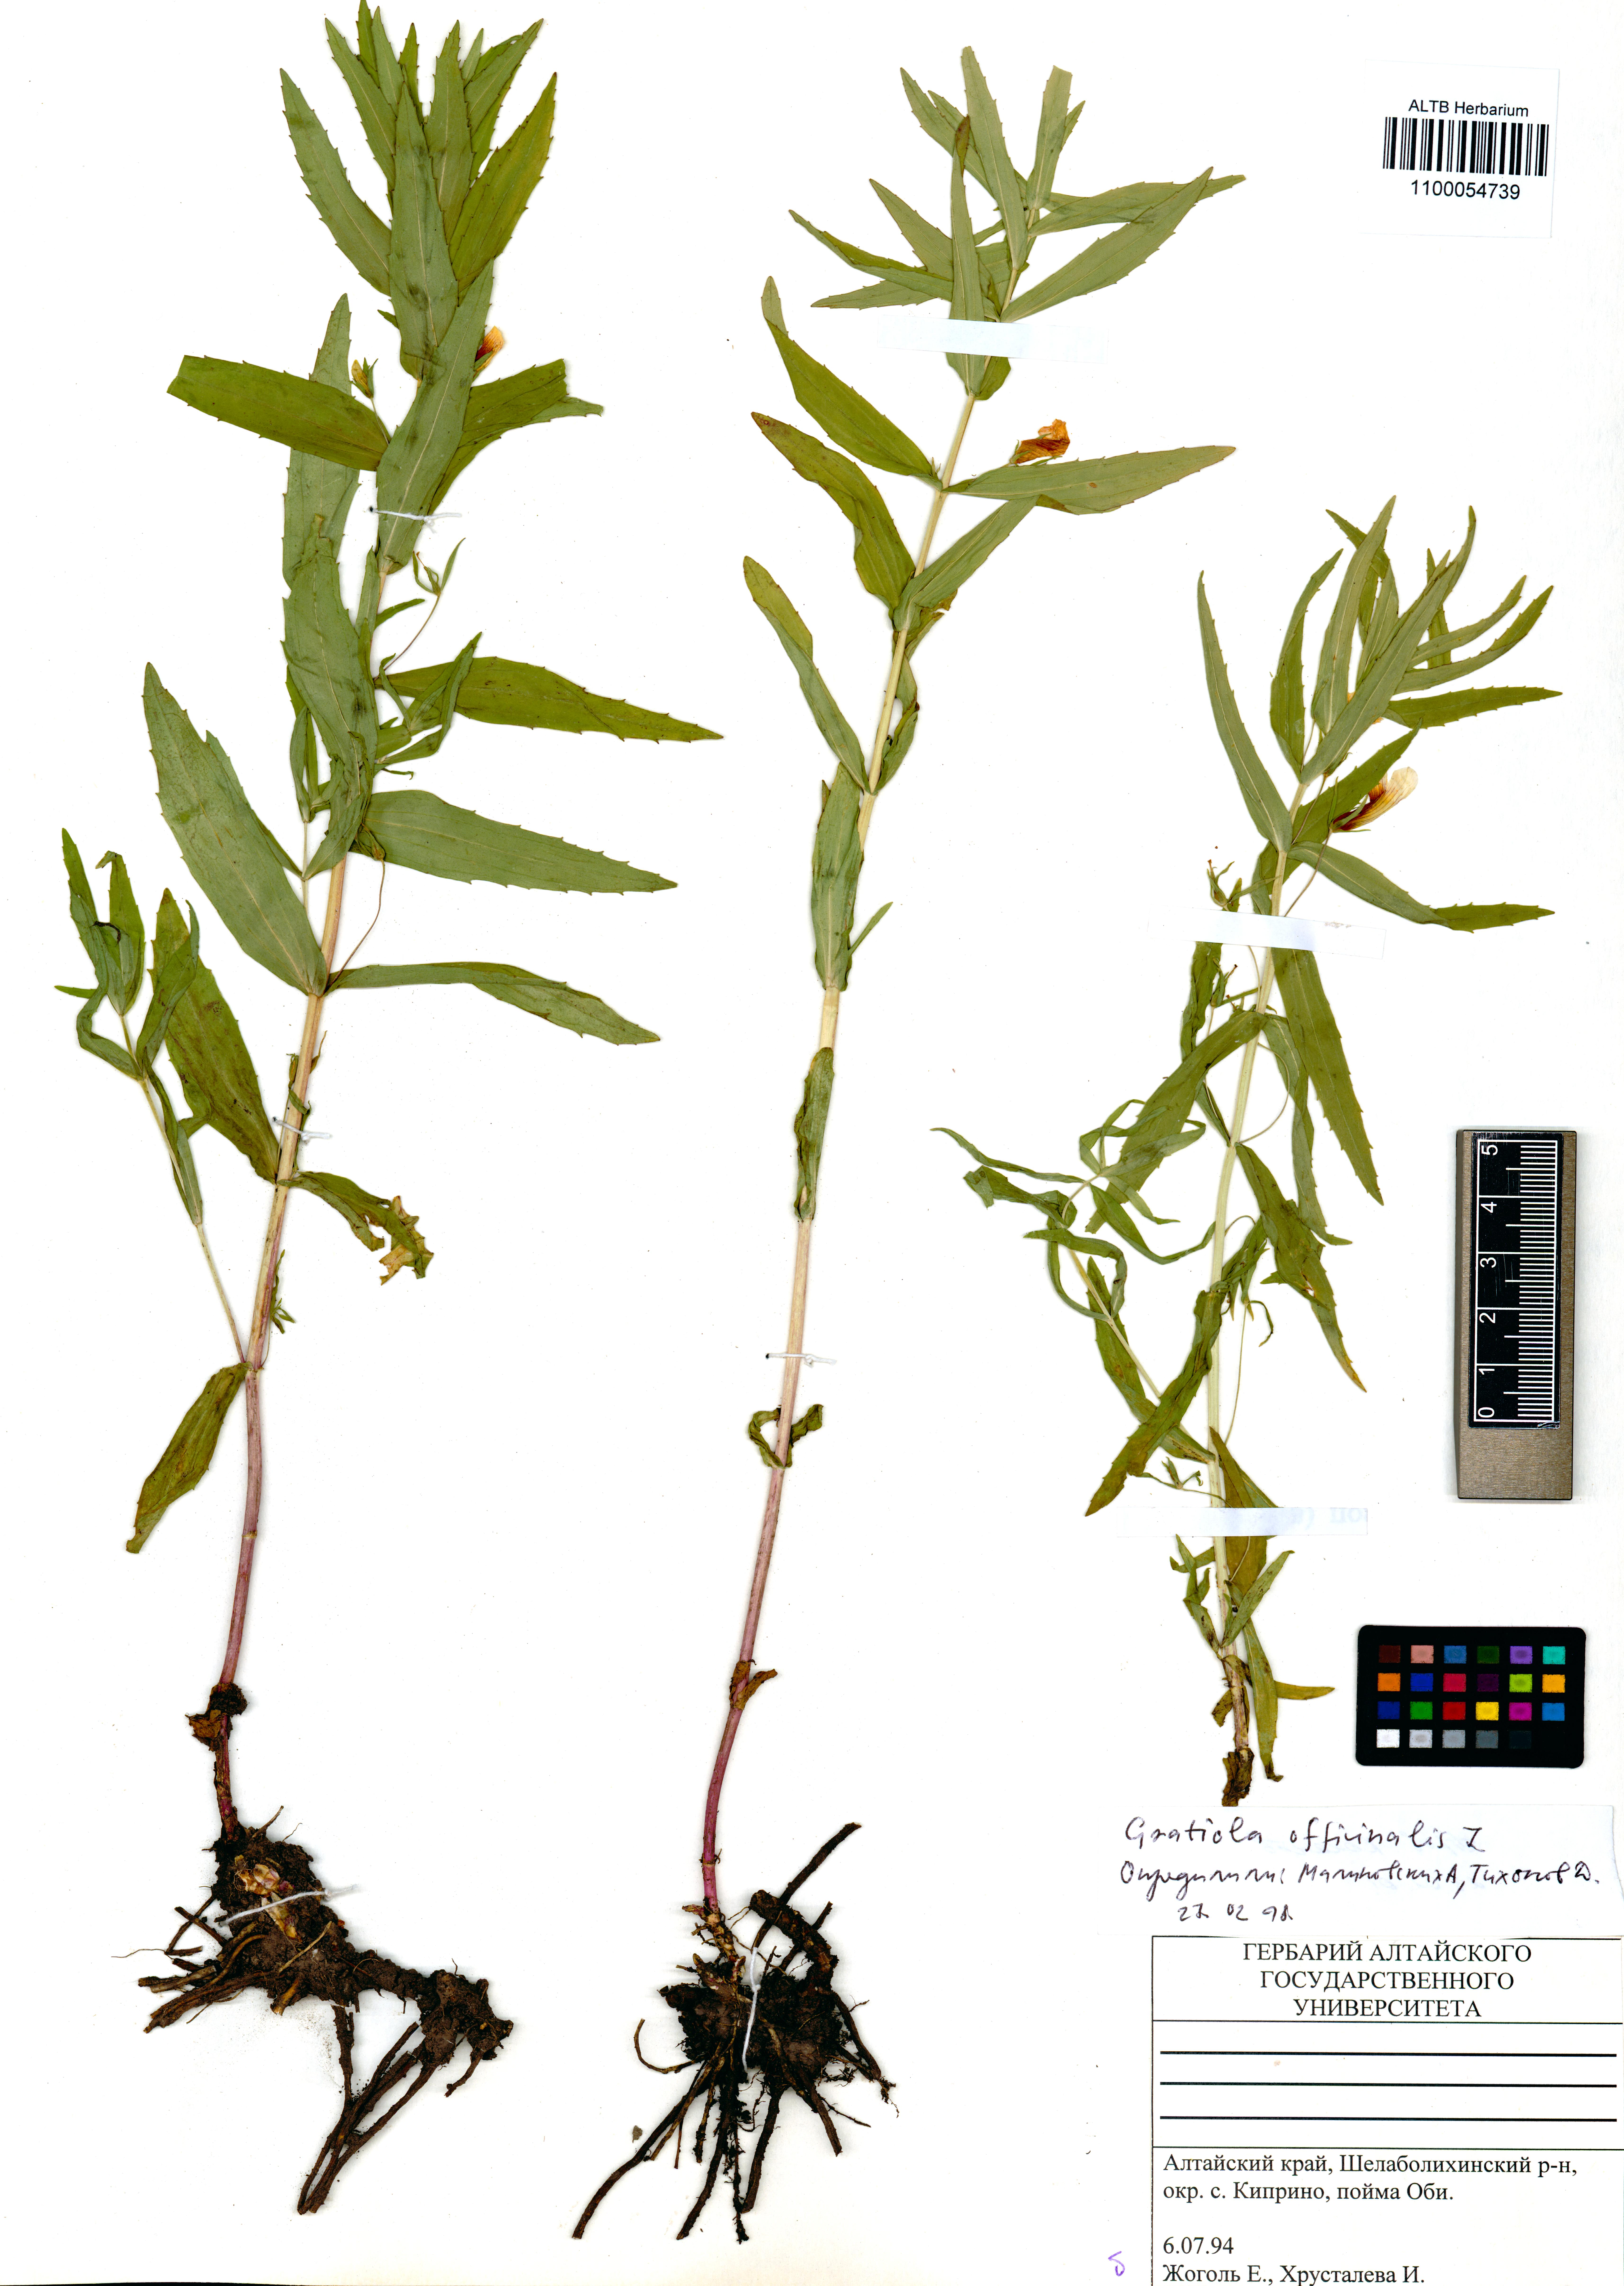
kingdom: Plantae
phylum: Tracheophyta
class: Magnoliopsida
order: Lamiales
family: Plantaginaceae
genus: Gratiola
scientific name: Gratiola officinalis
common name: Gratiola
